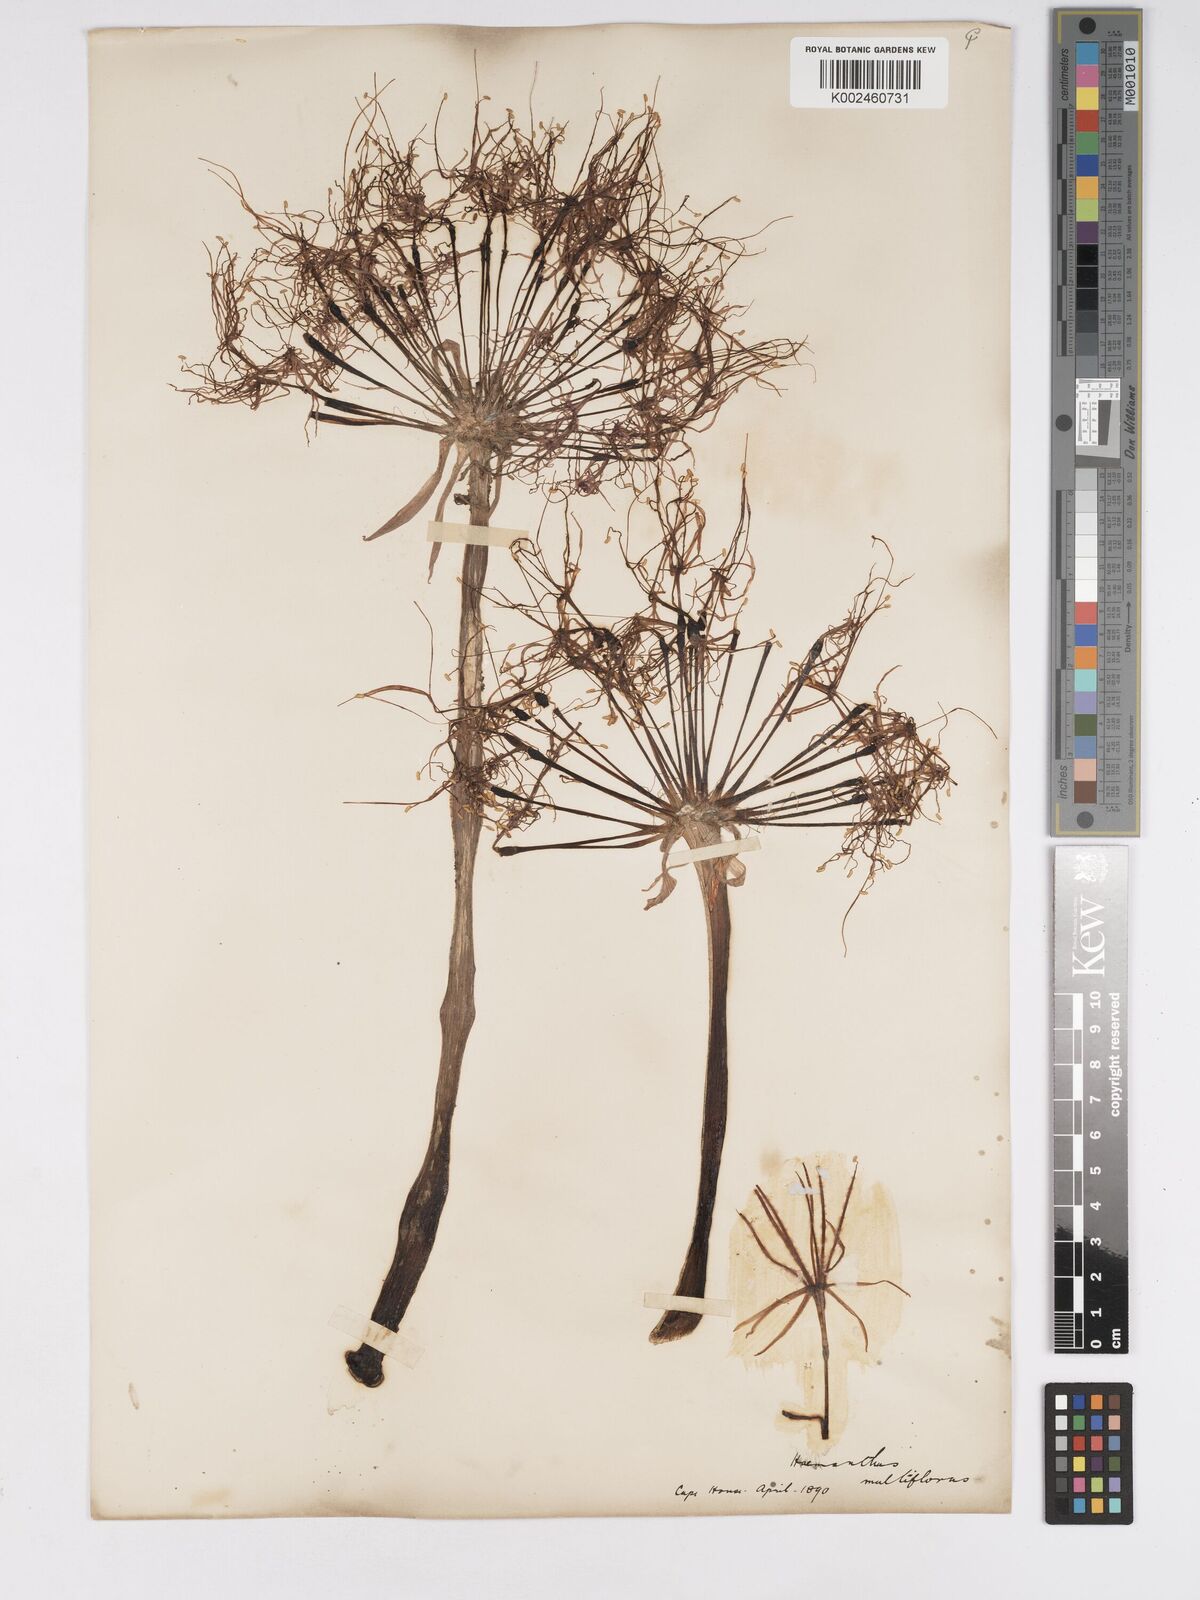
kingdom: Plantae
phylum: Tracheophyta
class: Liliopsida
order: Asparagales
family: Amaryllidaceae
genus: Scadoxus
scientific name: Scadoxus multiflorus
